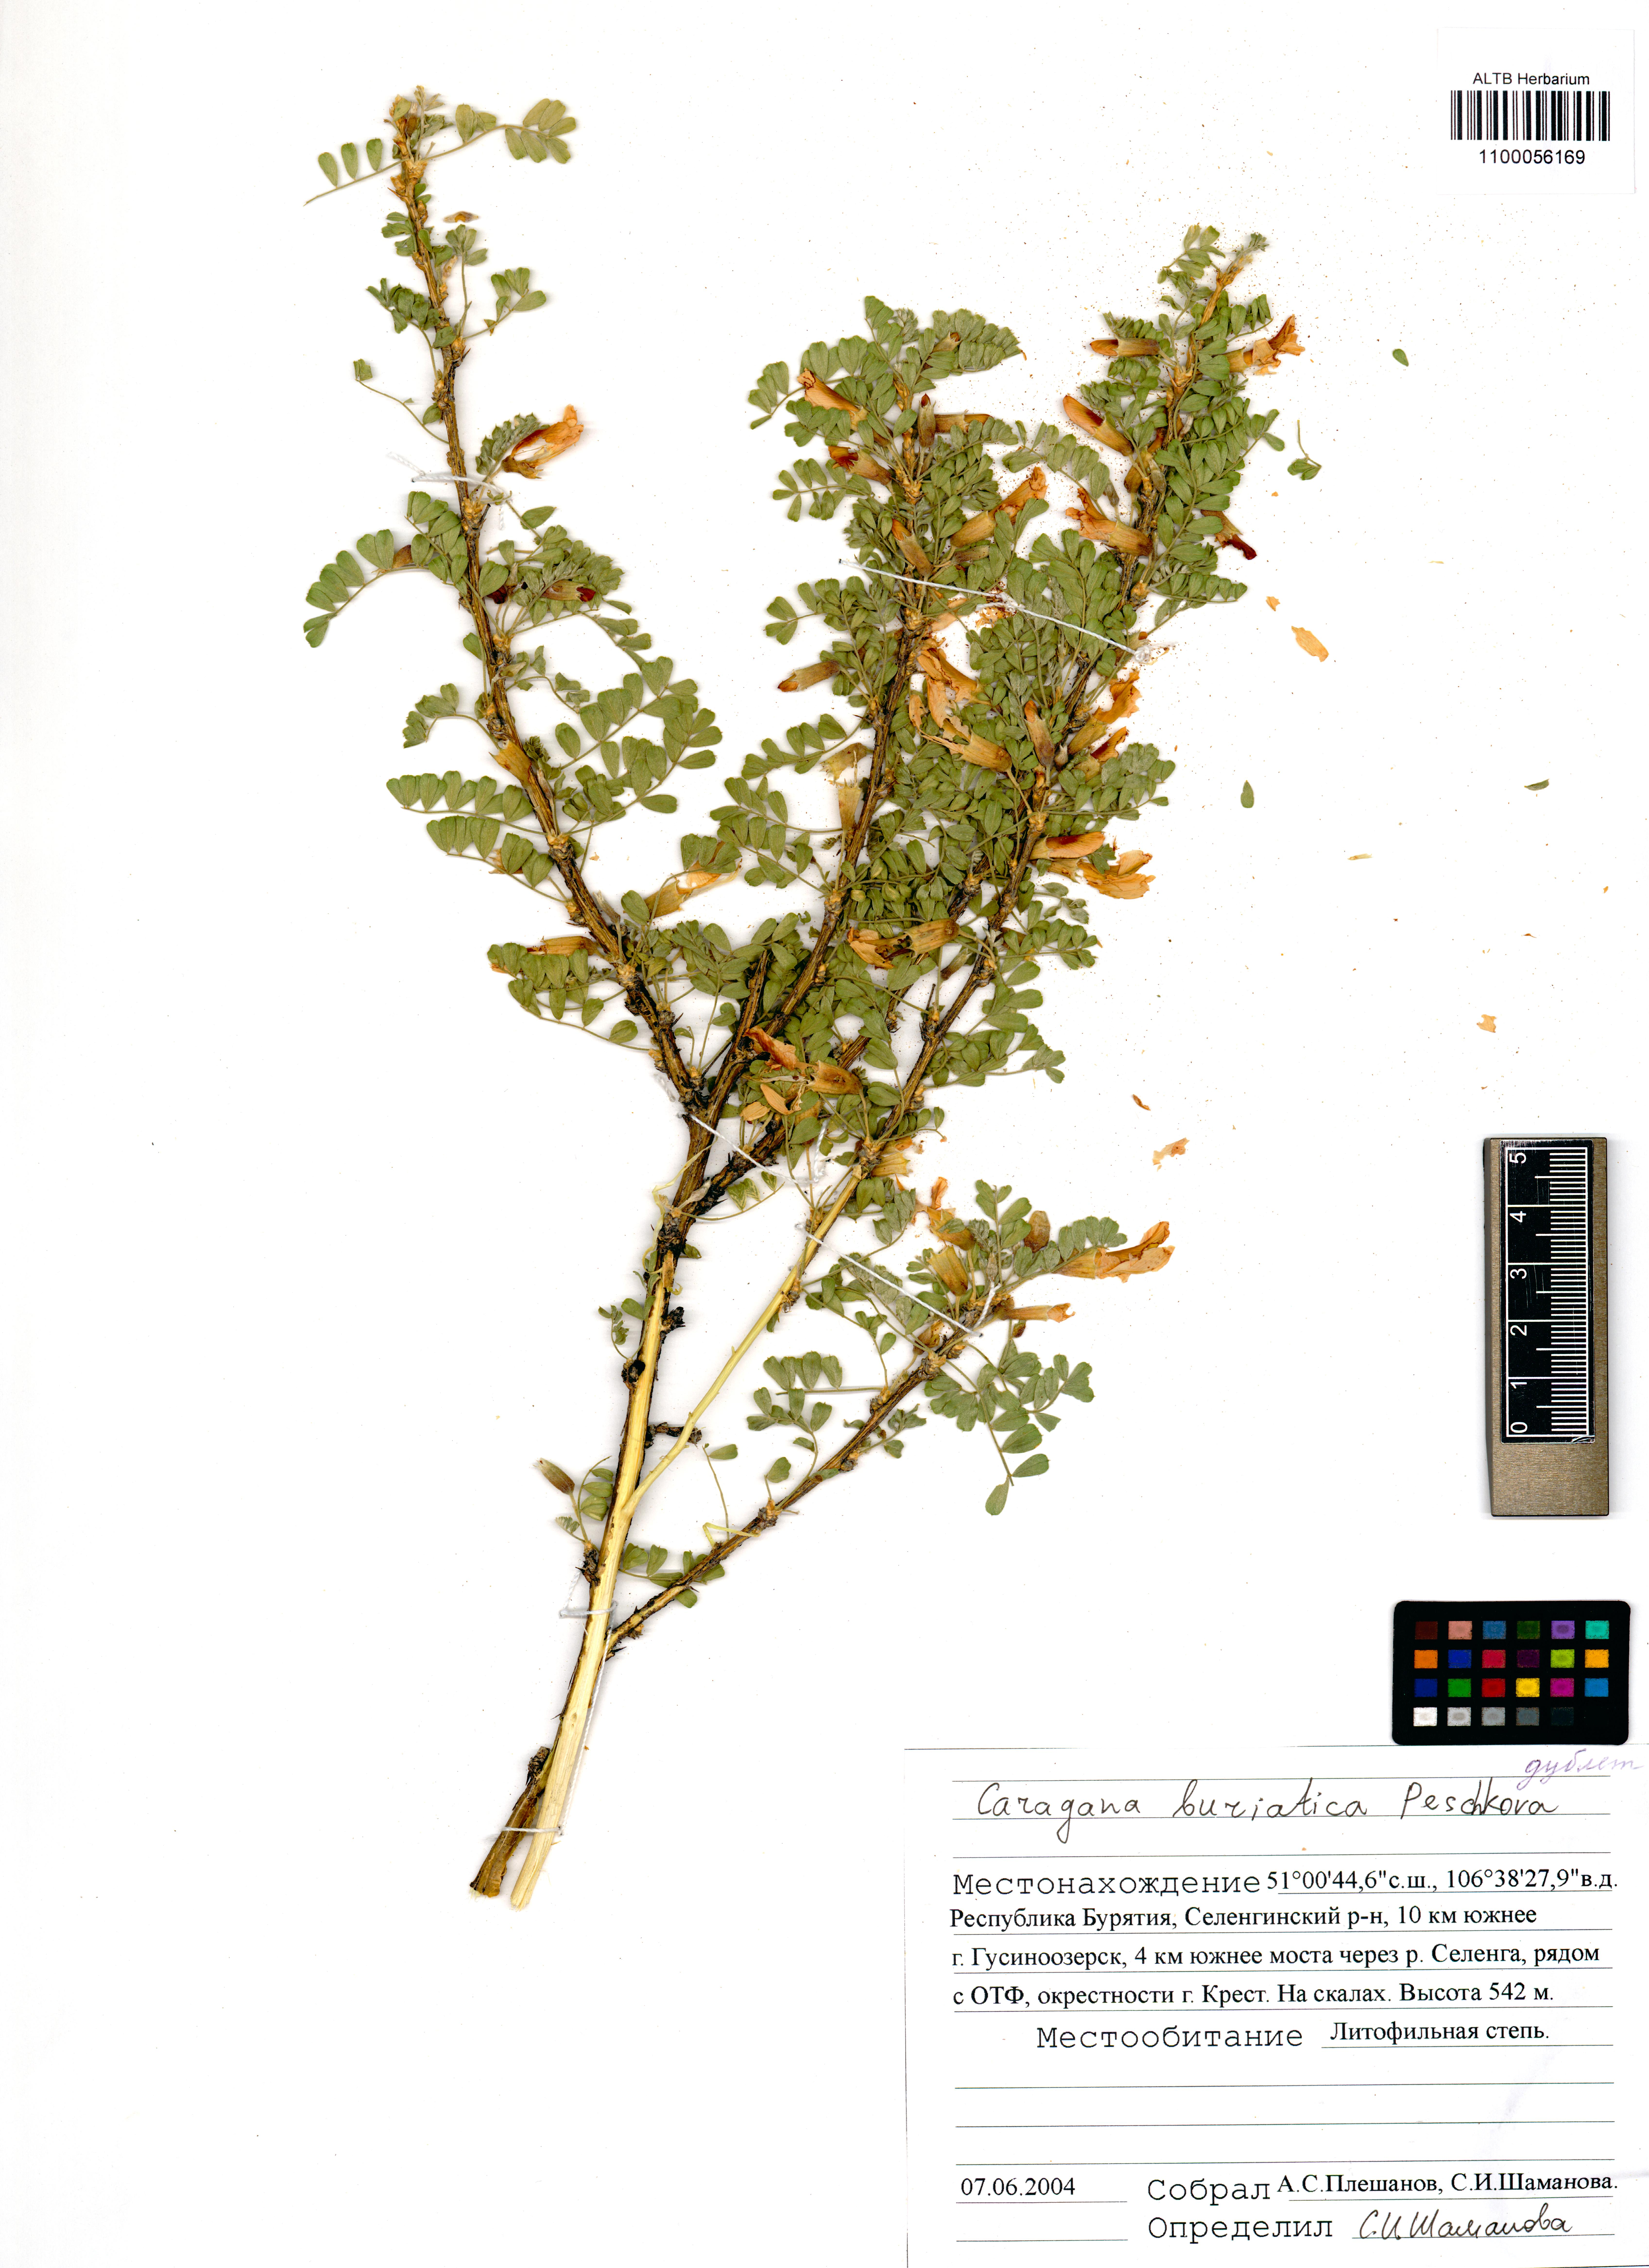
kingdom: Plantae
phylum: Tracheophyta
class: Magnoliopsida
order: Fabales
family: Fabaceae
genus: Caragana
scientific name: Caragana buriatica
